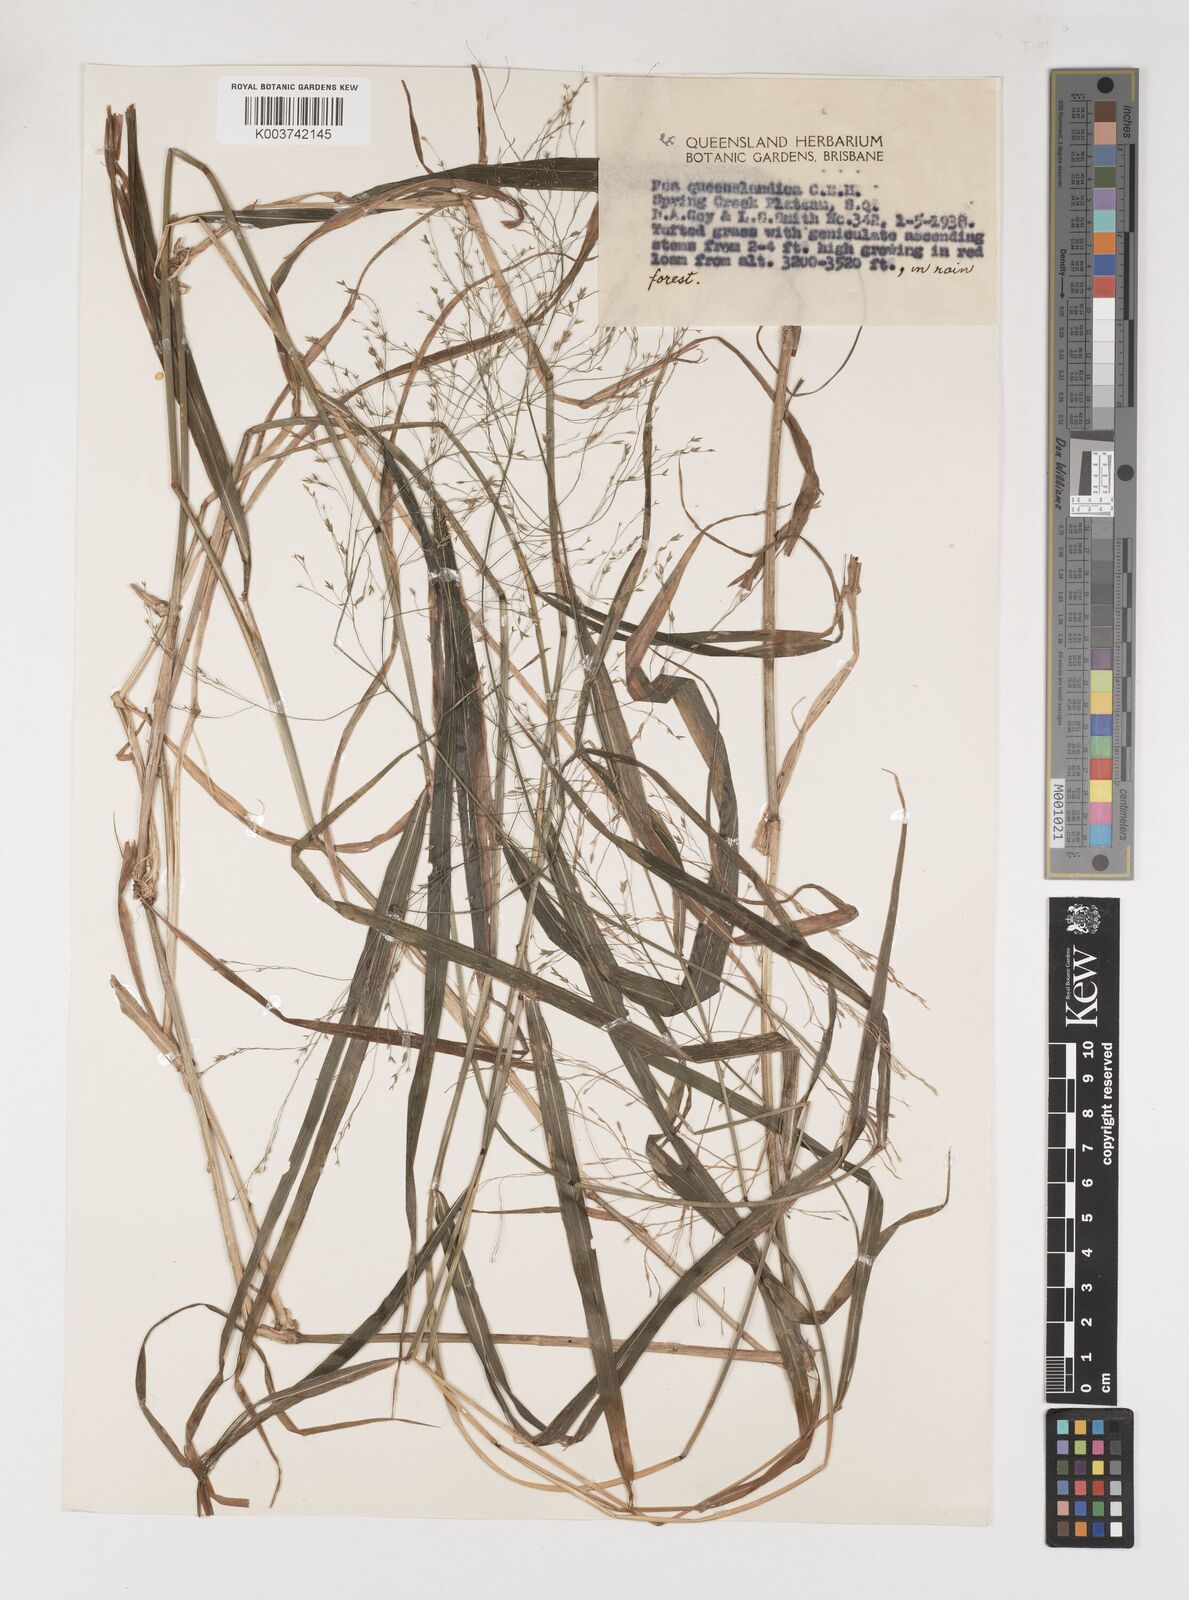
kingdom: Plantae
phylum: Tracheophyta
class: Liliopsida
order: Poales
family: Poaceae
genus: Sylvipoa
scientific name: Sylvipoa queenslandica
